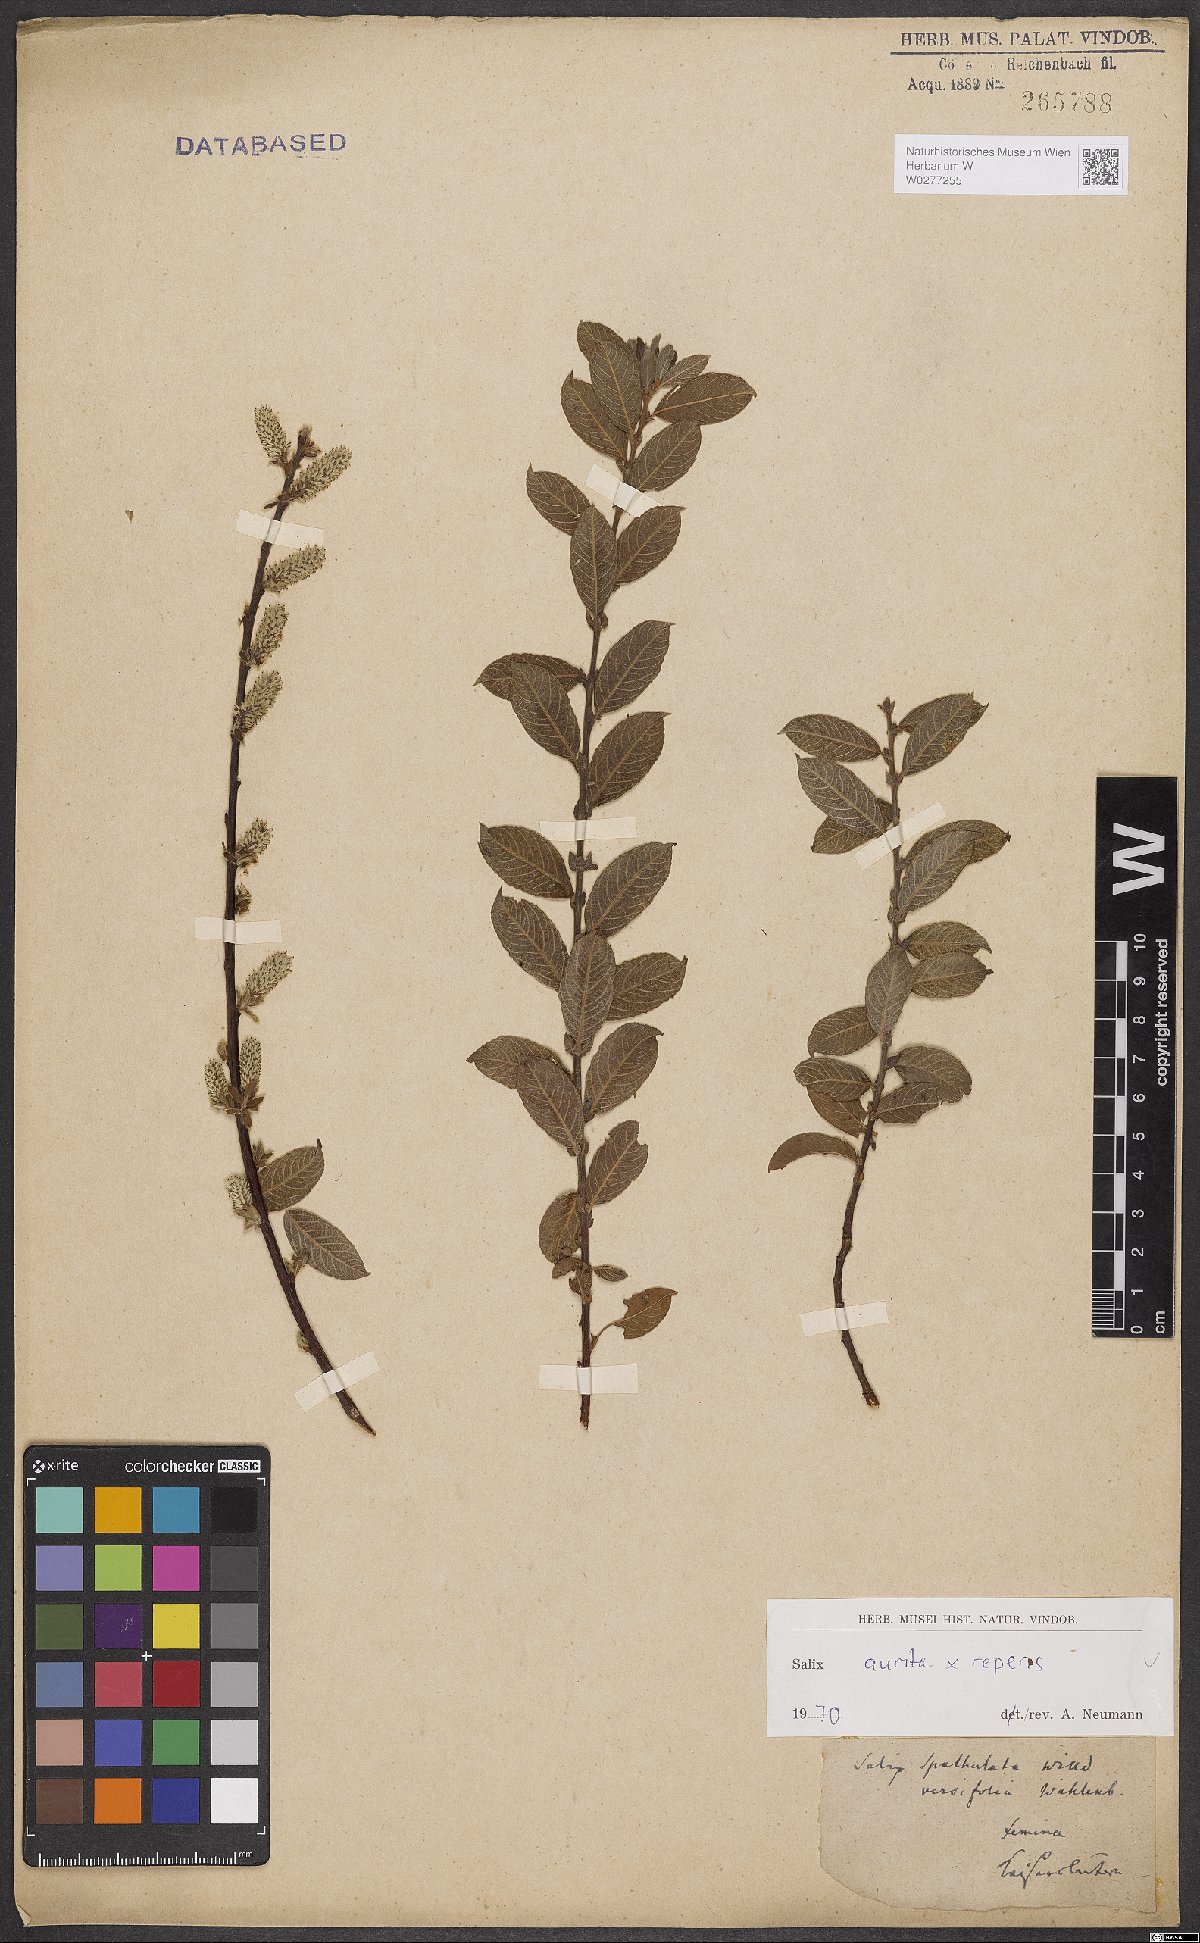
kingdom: Plantae
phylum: Tracheophyta
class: Magnoliopsida
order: Malpighiales
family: Salicaceae
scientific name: Salicaceae
